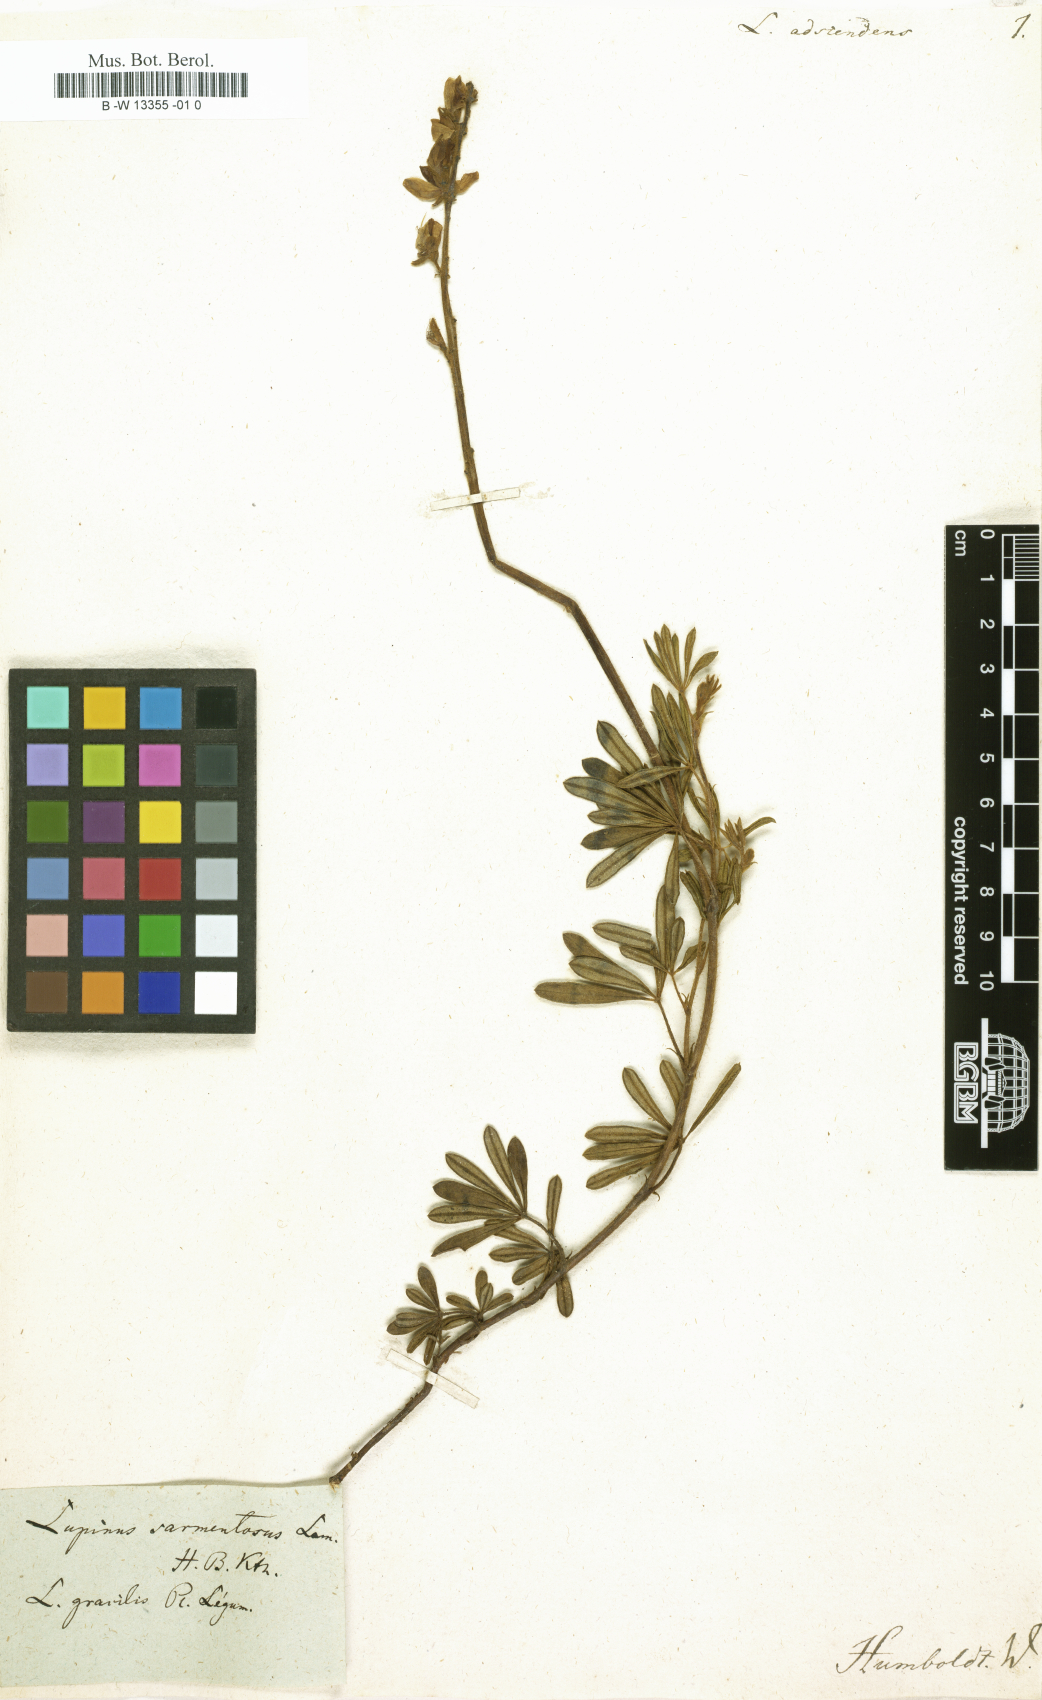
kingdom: Plantae
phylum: Tracheophyta
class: Magnoliopsida
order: Fabales
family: Fabaceae
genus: Lupinus
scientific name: Lupinus argenteus
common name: Silvery lupine
